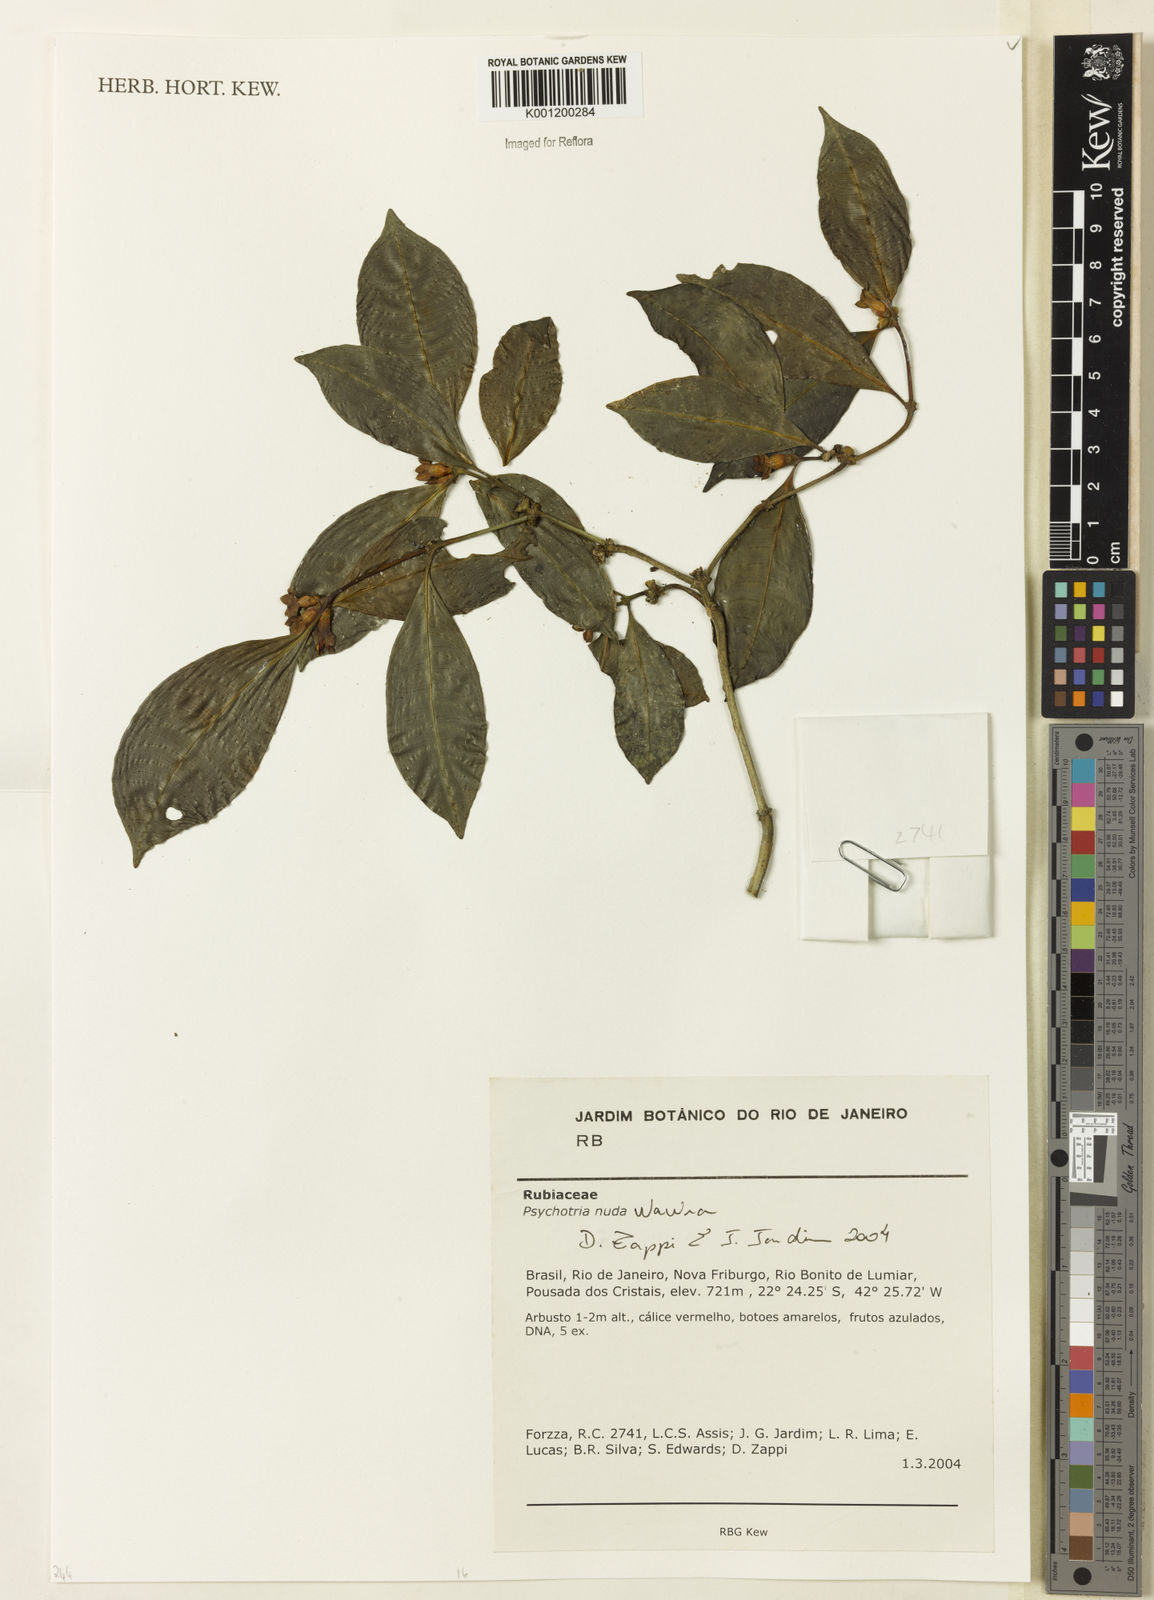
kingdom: Plantae
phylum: Tracheophyta
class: Magnoliopsida
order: Gentianales
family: Rubiaceae
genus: Psychotria
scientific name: Psychotria nuda
